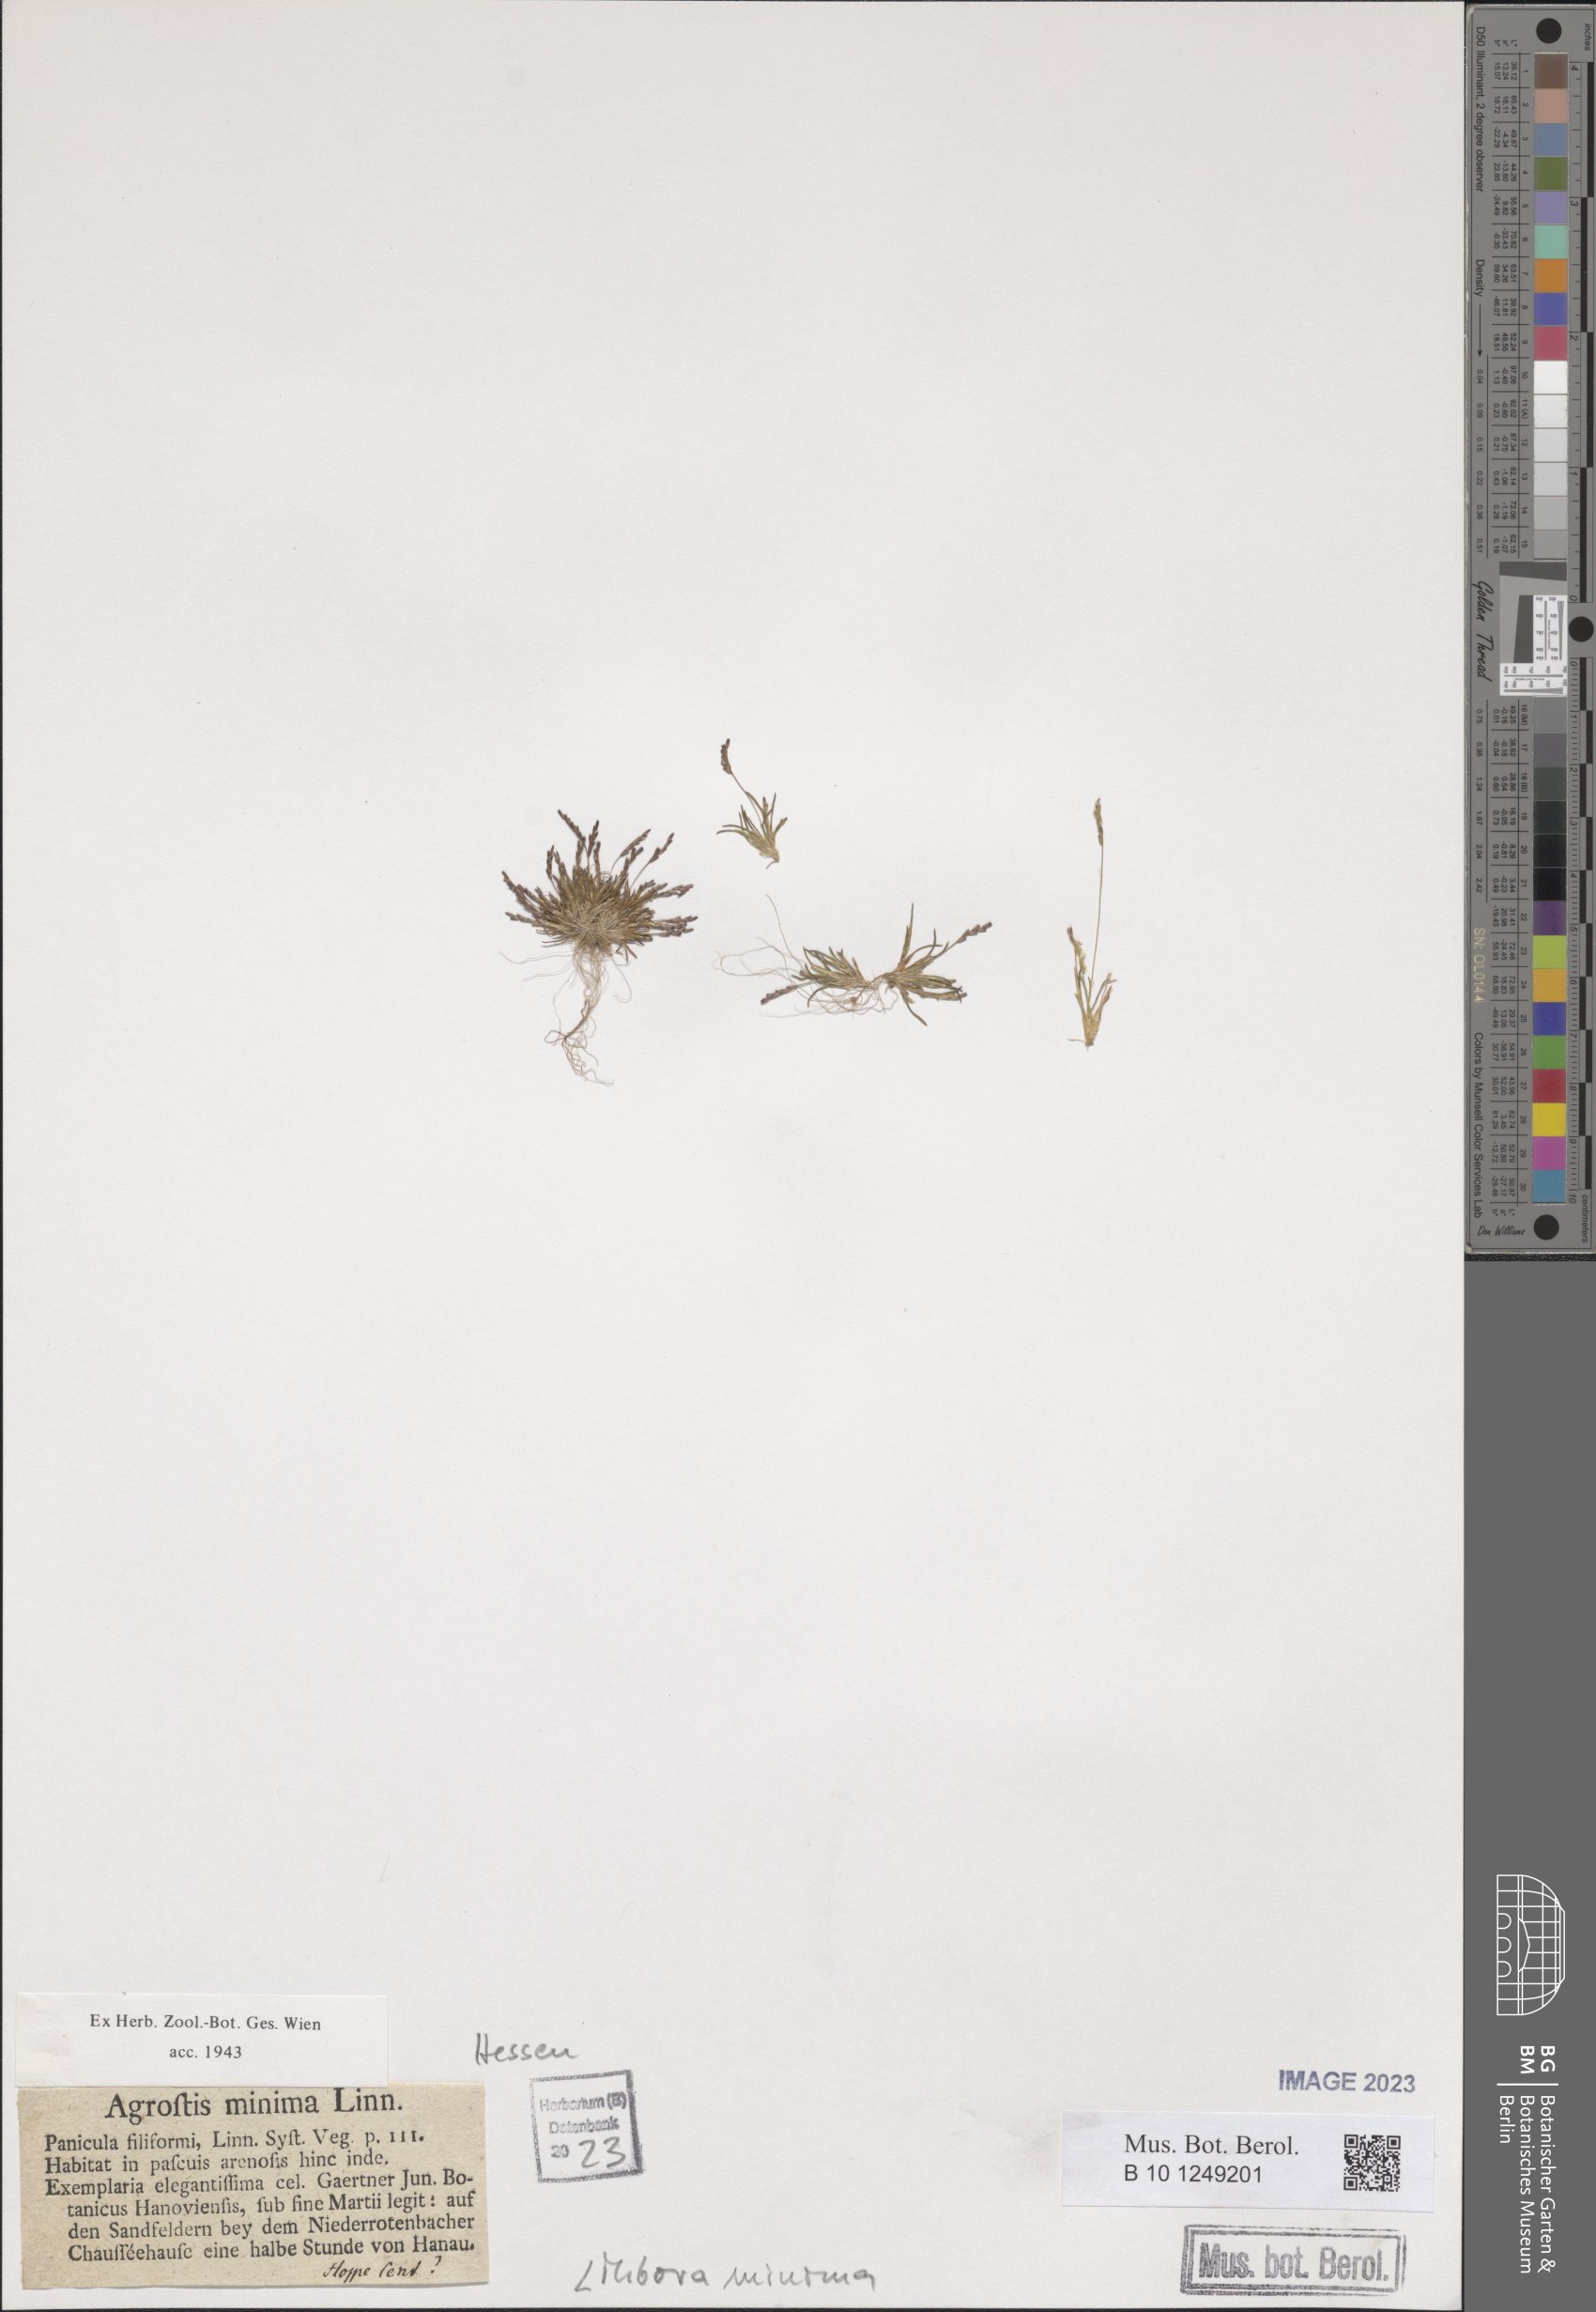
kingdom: Plantae
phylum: Tracheophyta
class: Liliopsida
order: Poales
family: Poaceae
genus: Mibora
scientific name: Mibora minima
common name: Early sand-grass
